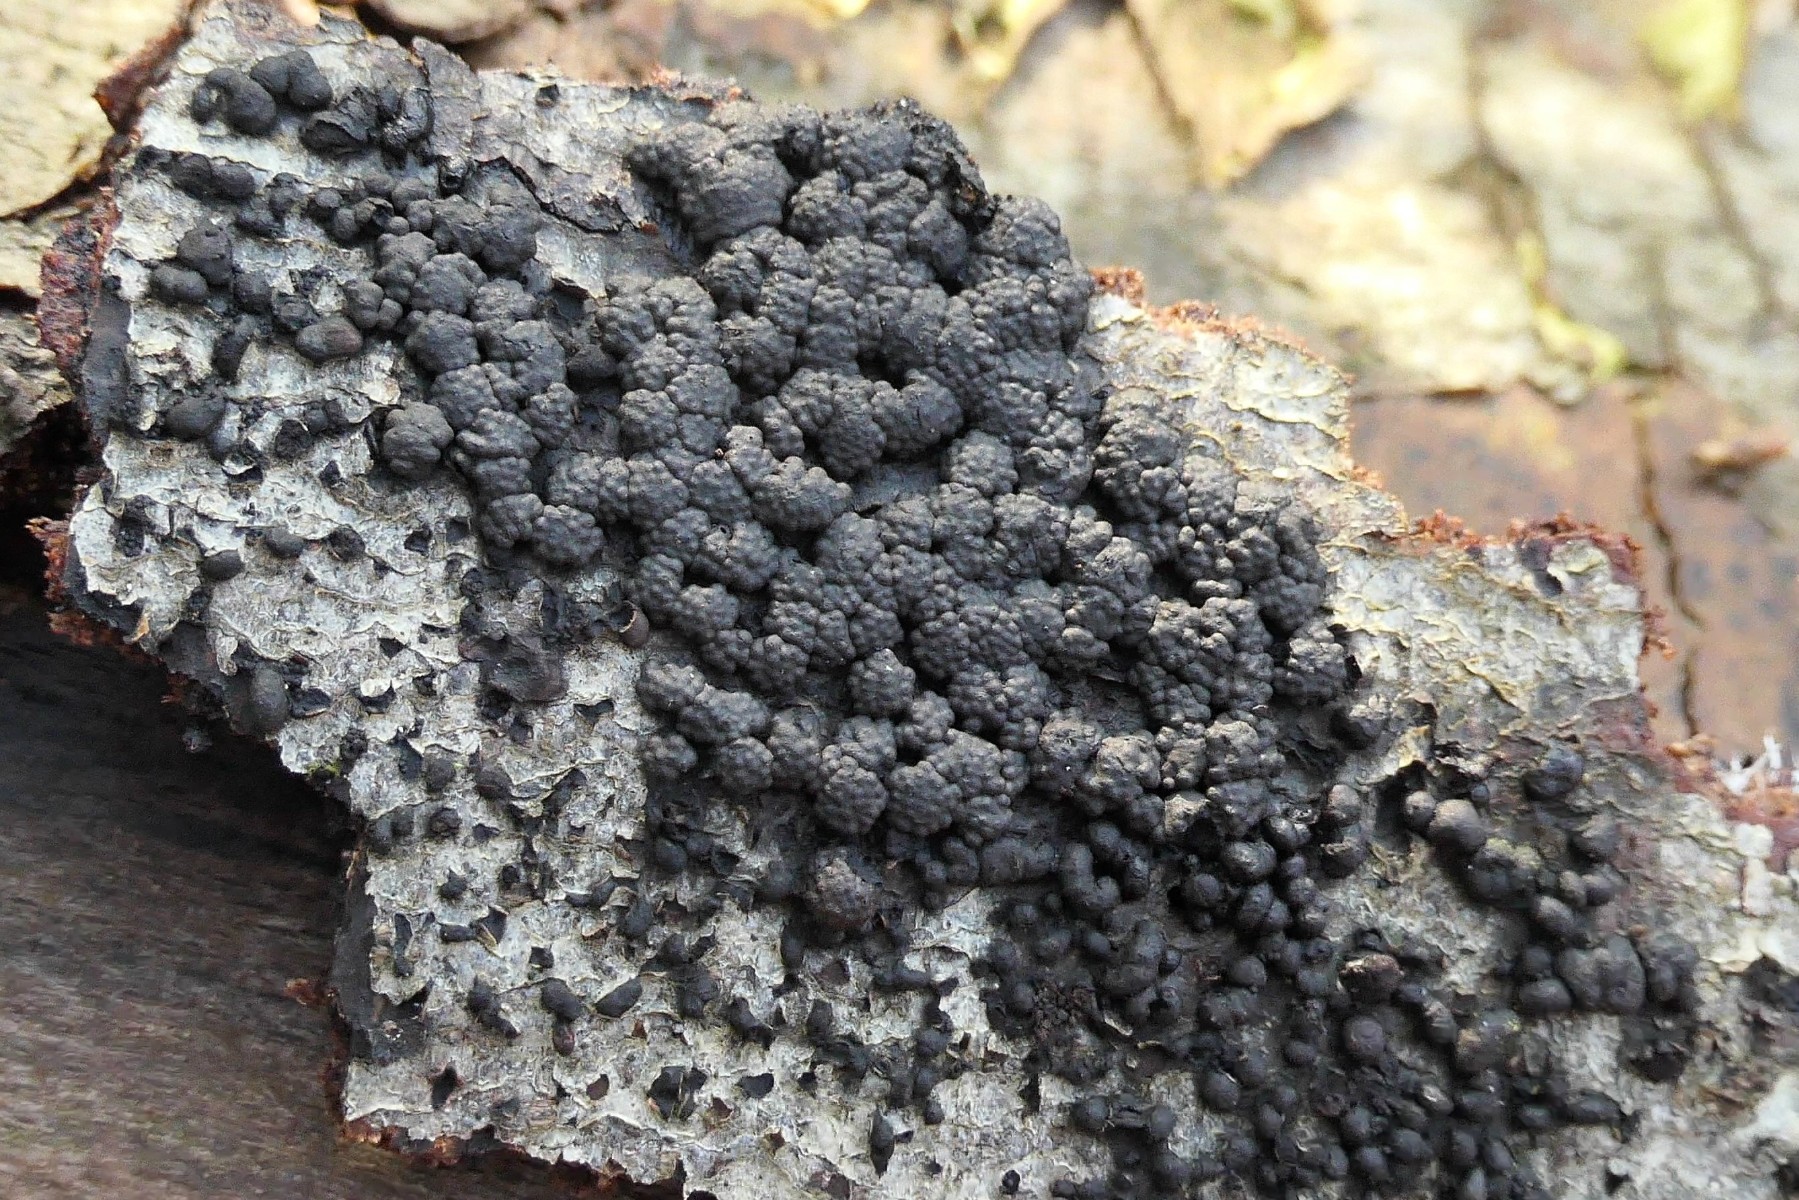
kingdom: Fungi
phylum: Ascomycota
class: Sordariomycetes
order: Xylariales
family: Hypoxylaceae
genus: Jackrogersella
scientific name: Jackrogersella cohaerens
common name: sammenflydende kulbær
